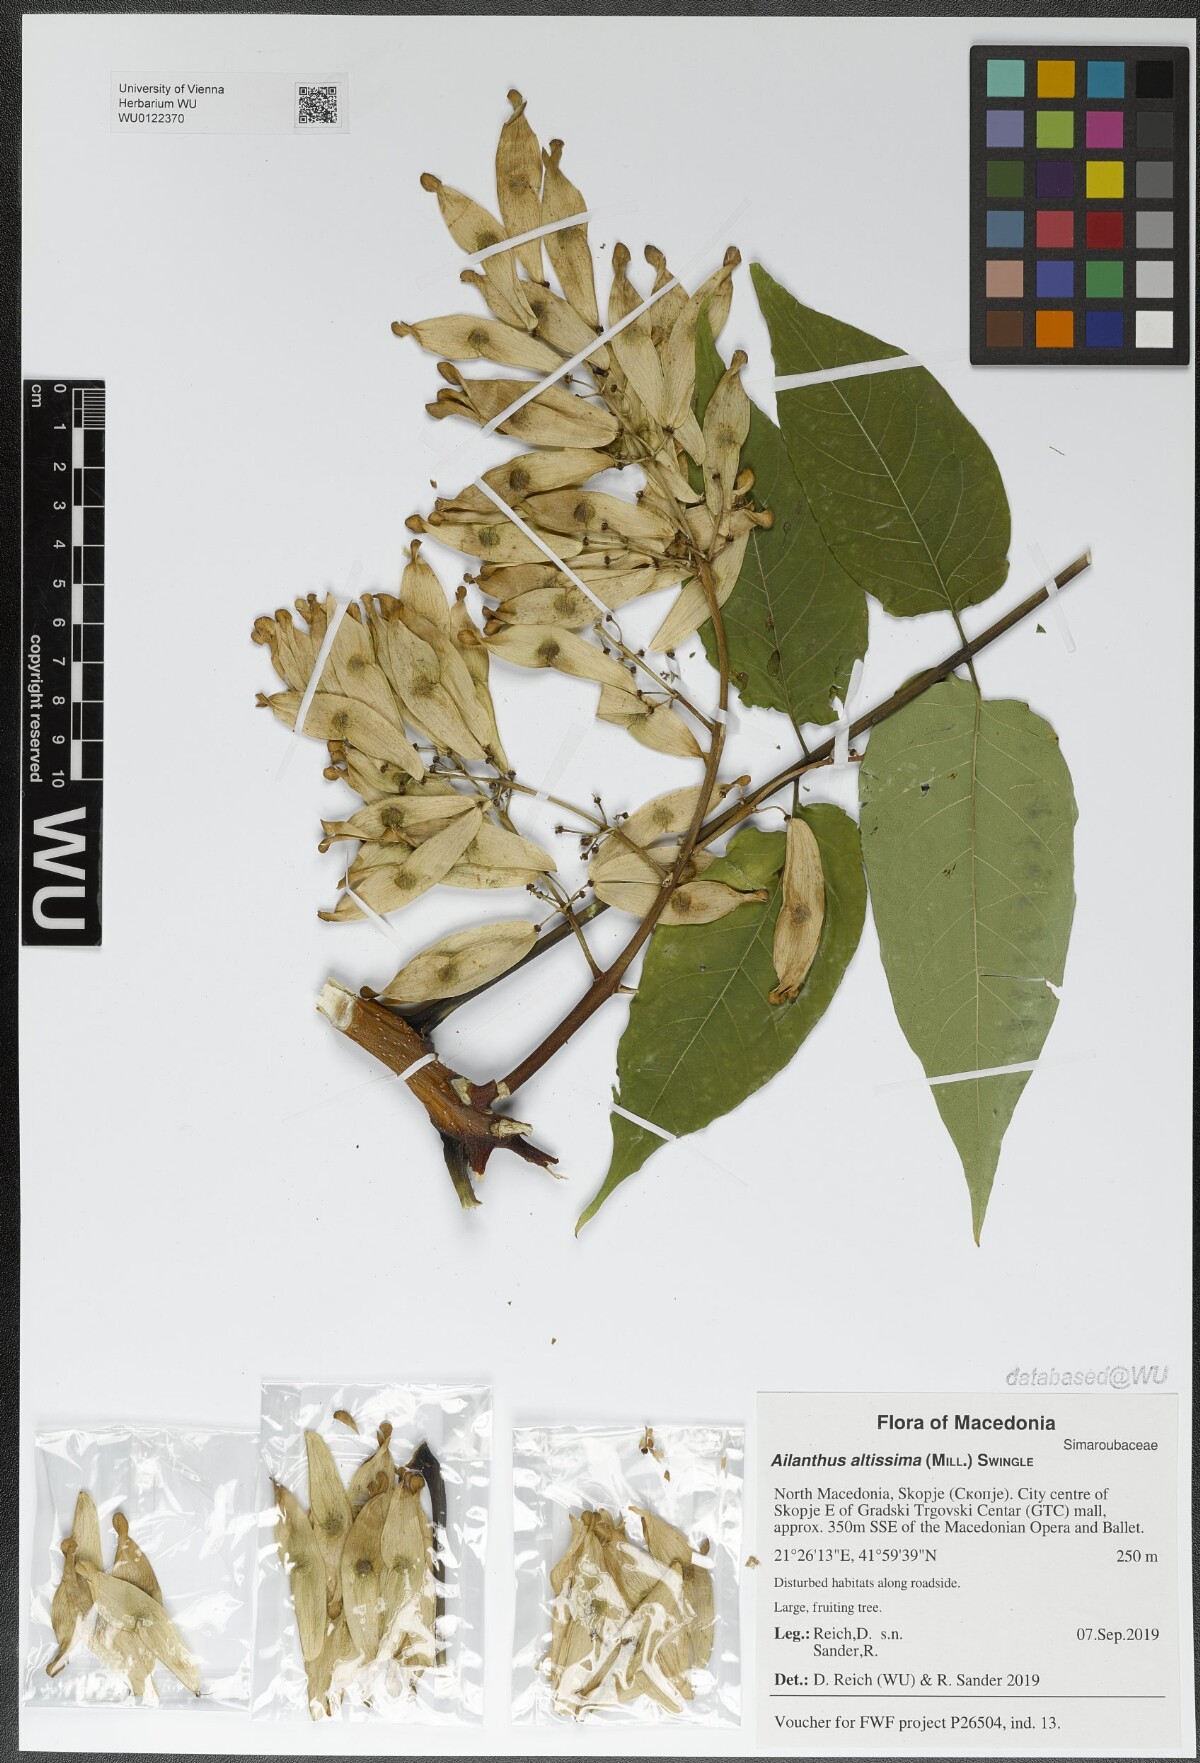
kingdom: Plantae
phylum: Tracheophyta
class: Magnoliopsida
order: Sapindales
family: Simaroubaceae
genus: Ailanthus
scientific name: Ailanthus altissima
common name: Tree-of-heaven
